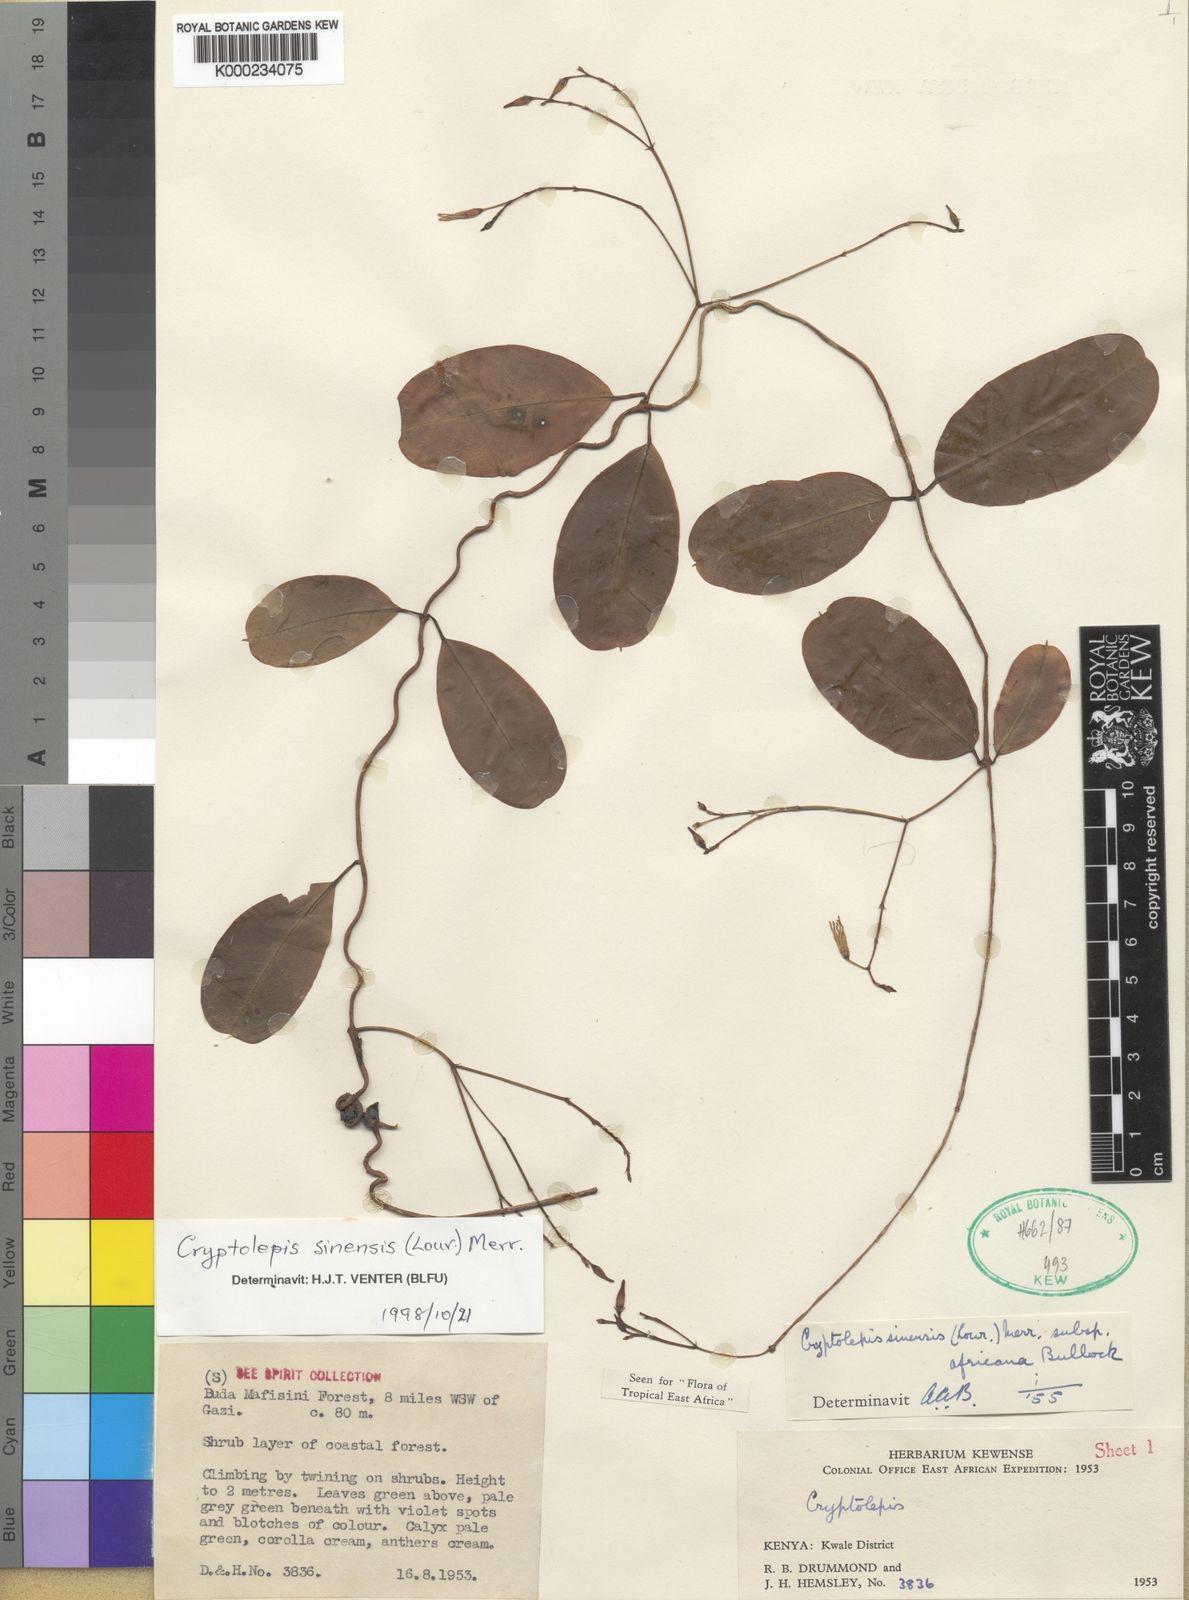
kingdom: Plantae
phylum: Tracheophyta
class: Magnoliopsida
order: Gentianales
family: Apocynaceae
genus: Cryptolepis
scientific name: Cryptolepis apiculata
